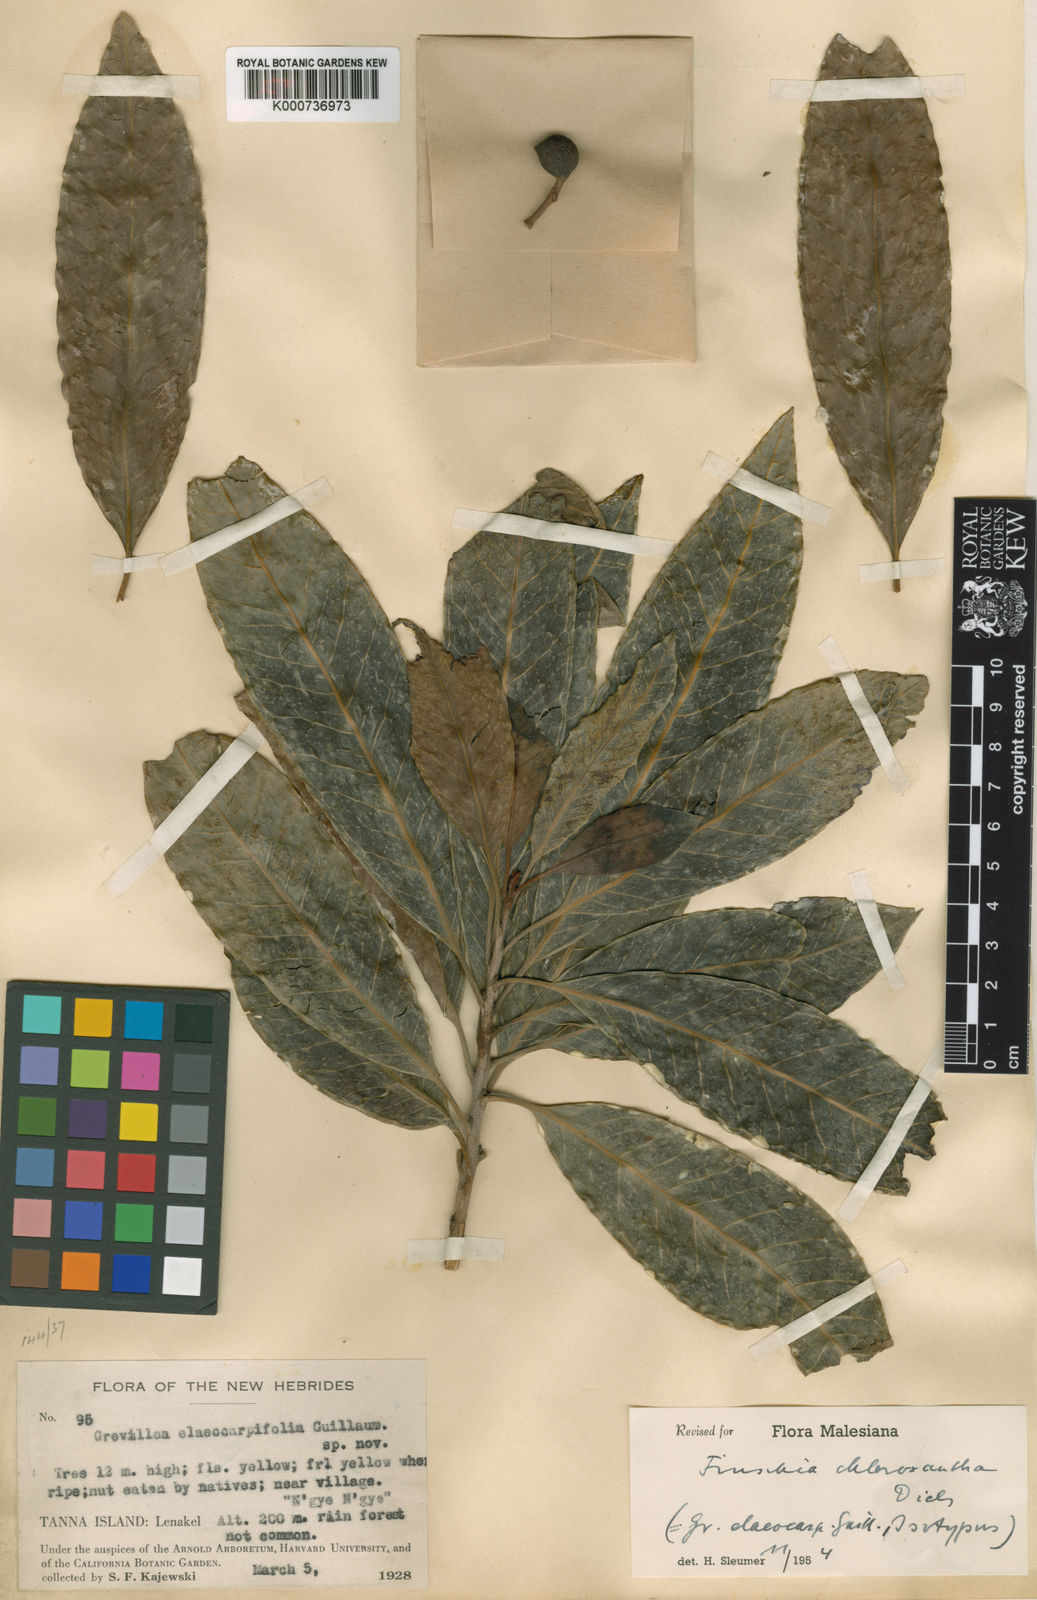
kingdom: Plantae
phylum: Tracheophyta
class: Magnoliopsida
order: Proteales
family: Proteaceae
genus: Finschia
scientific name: Finschia chloroxantha
